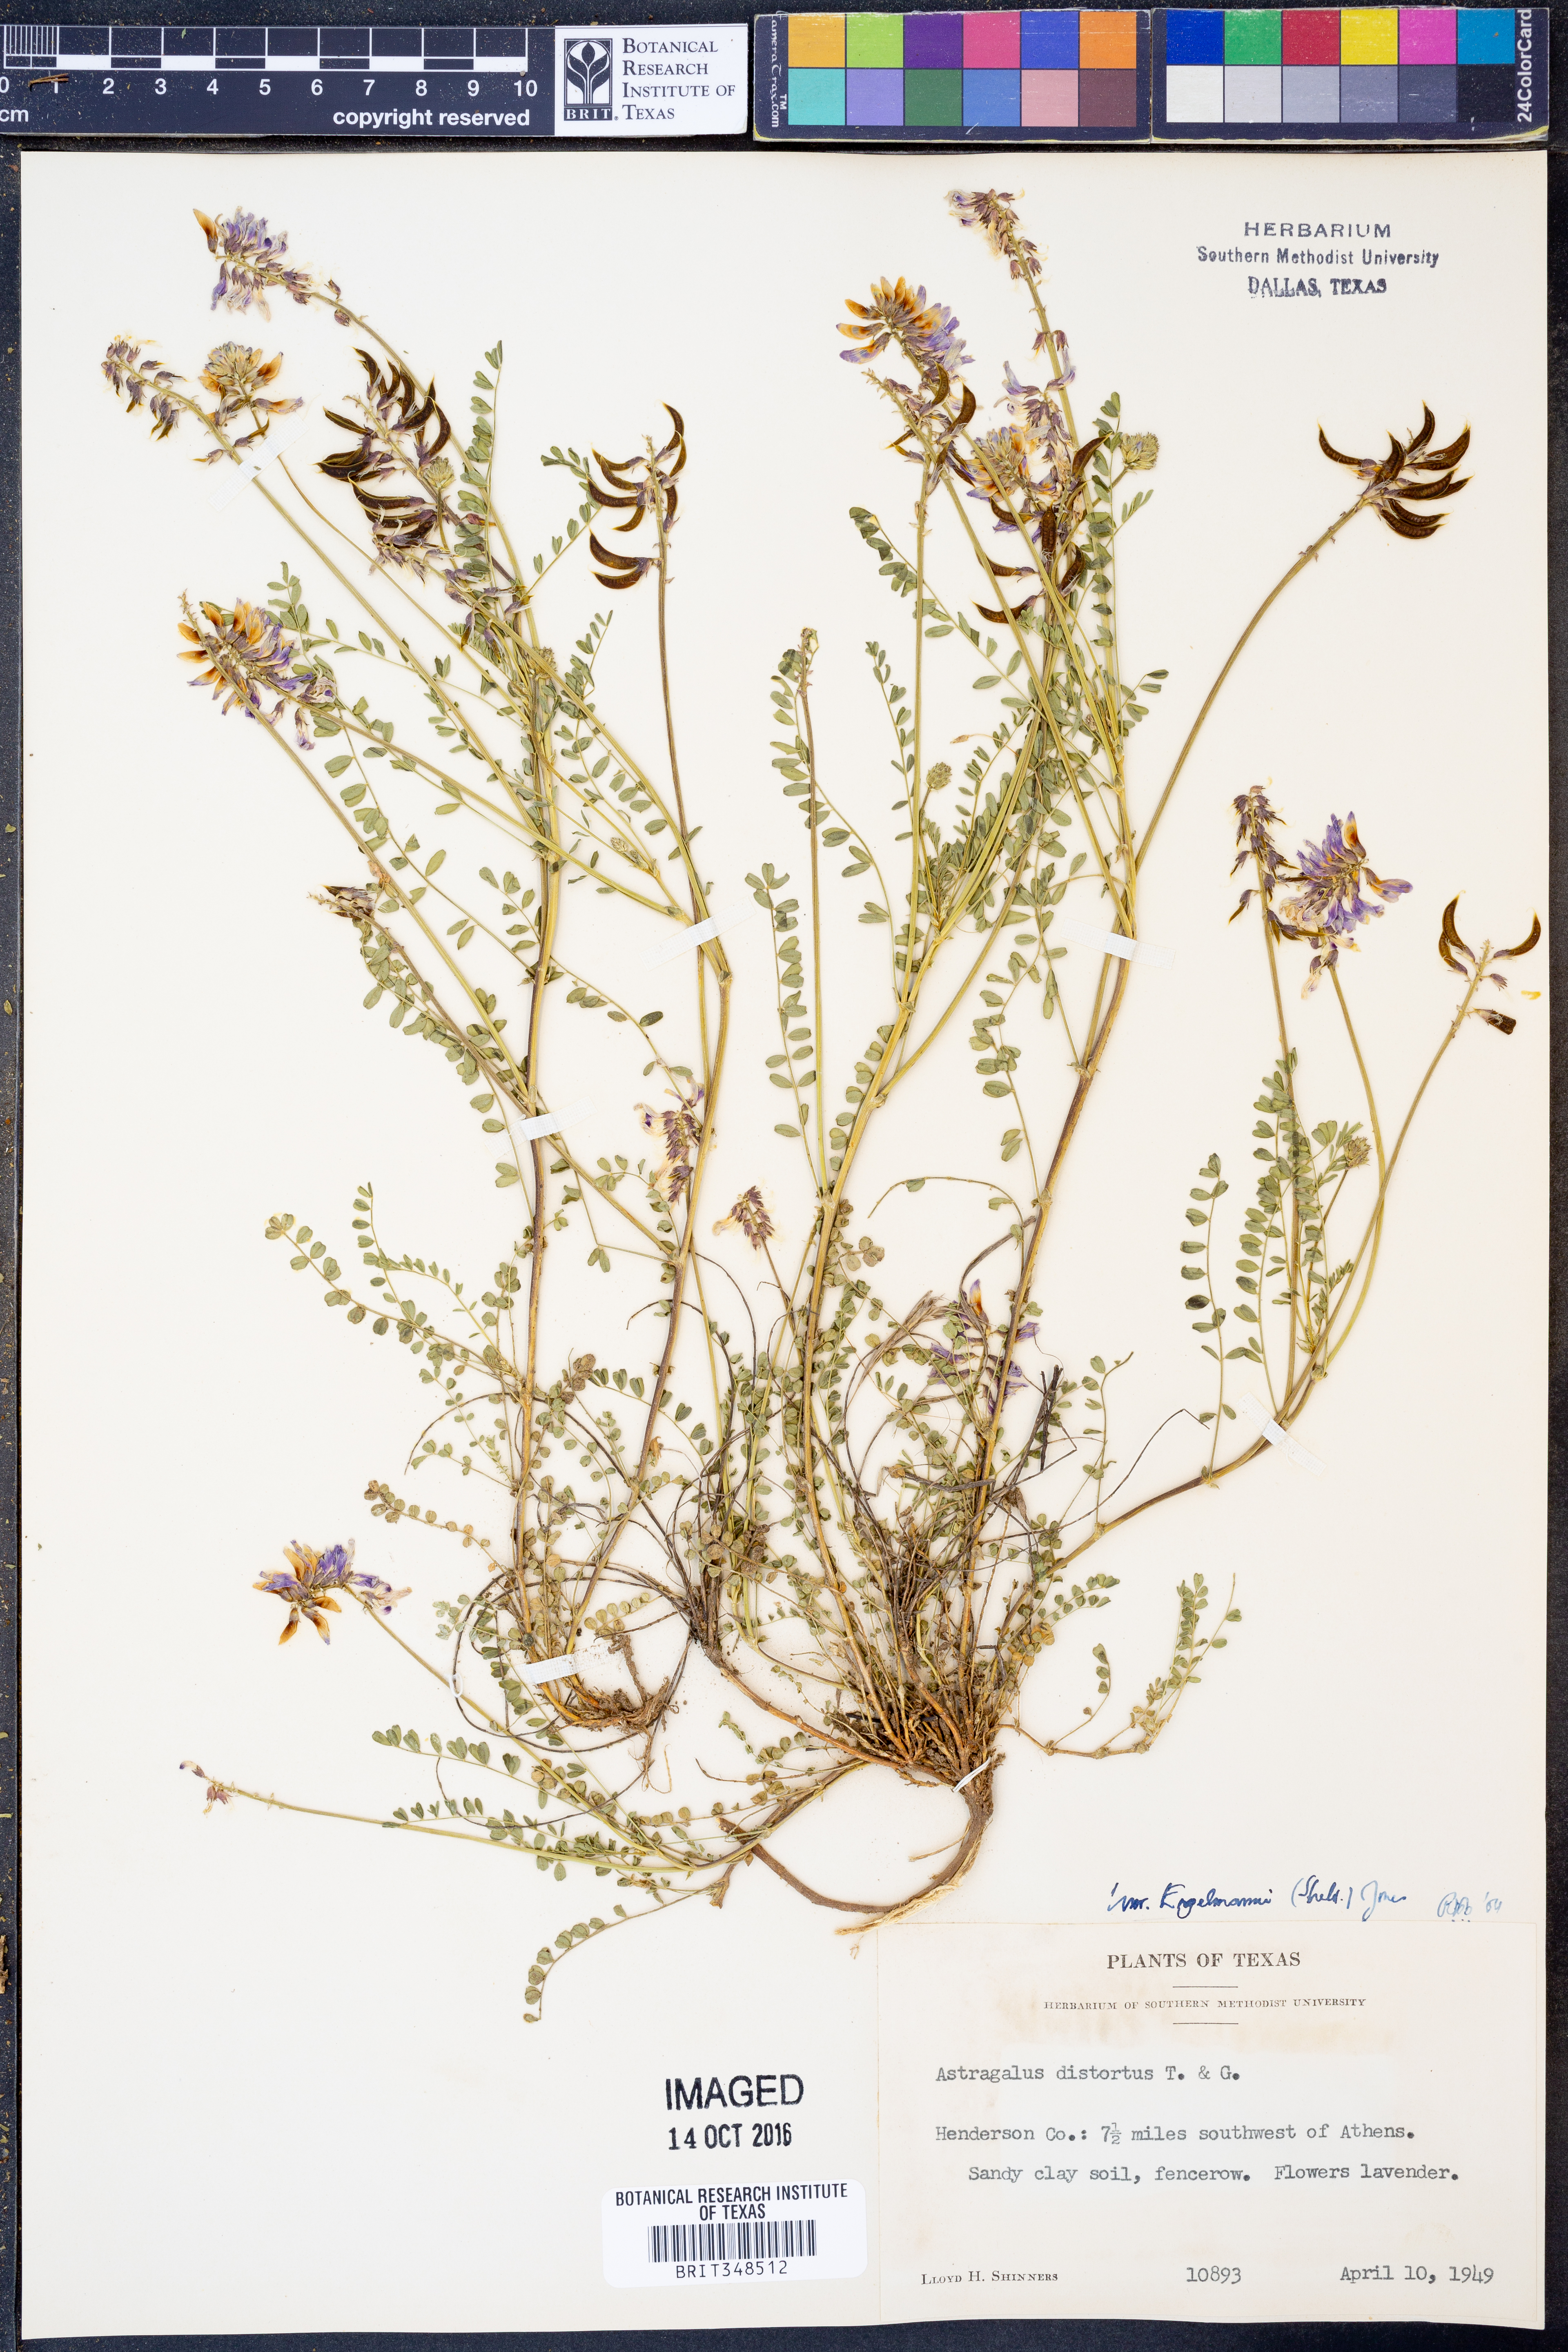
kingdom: Plantae
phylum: Tracheophyta
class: Magnoliopsida
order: Fabales
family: Fabaceae
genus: Astragalus
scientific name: Astragalus distortus
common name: Ozark milk-vetch
